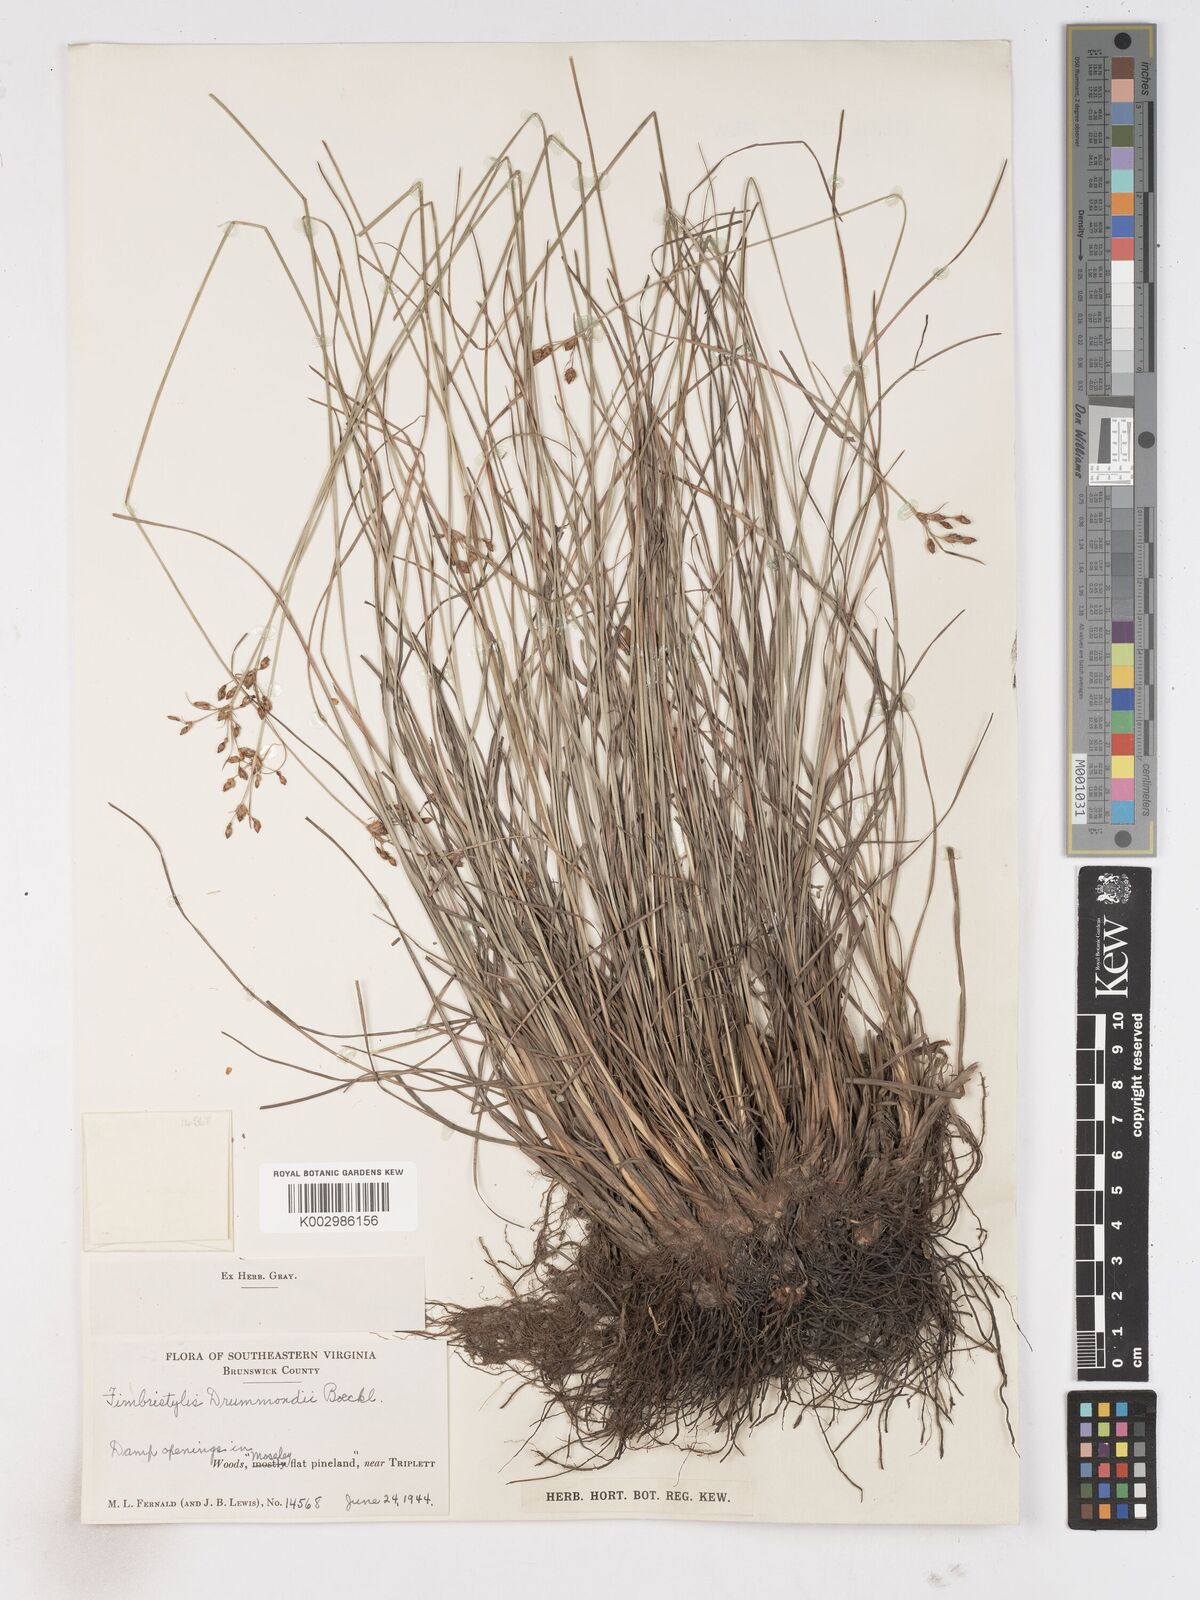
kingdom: Plantae
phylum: Tracheophyta
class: Liliopsida
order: Poales
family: Cyperaceae
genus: Fimbristylis
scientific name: Fimbristylis spadicea
